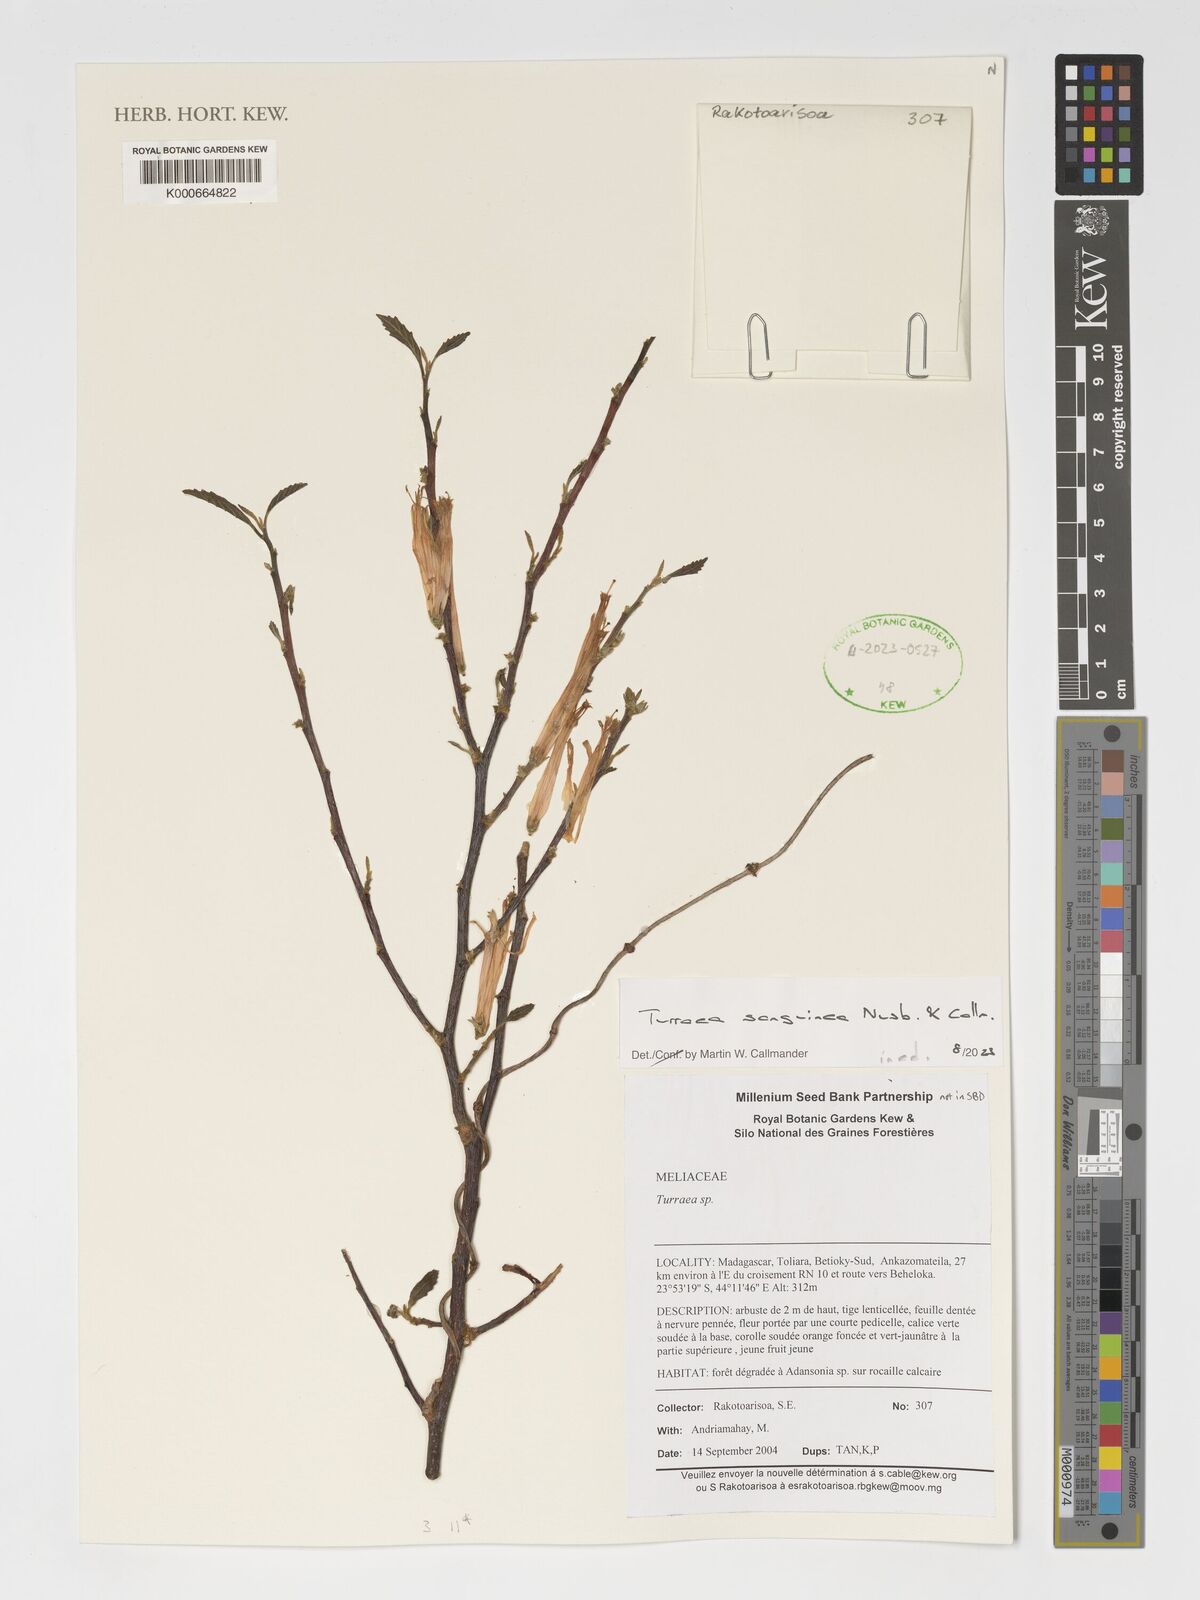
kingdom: Plantae
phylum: Tracheophyta
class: Magnoliopsida
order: Sapindales
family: Meliaceae
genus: Turraea
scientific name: Turraea
